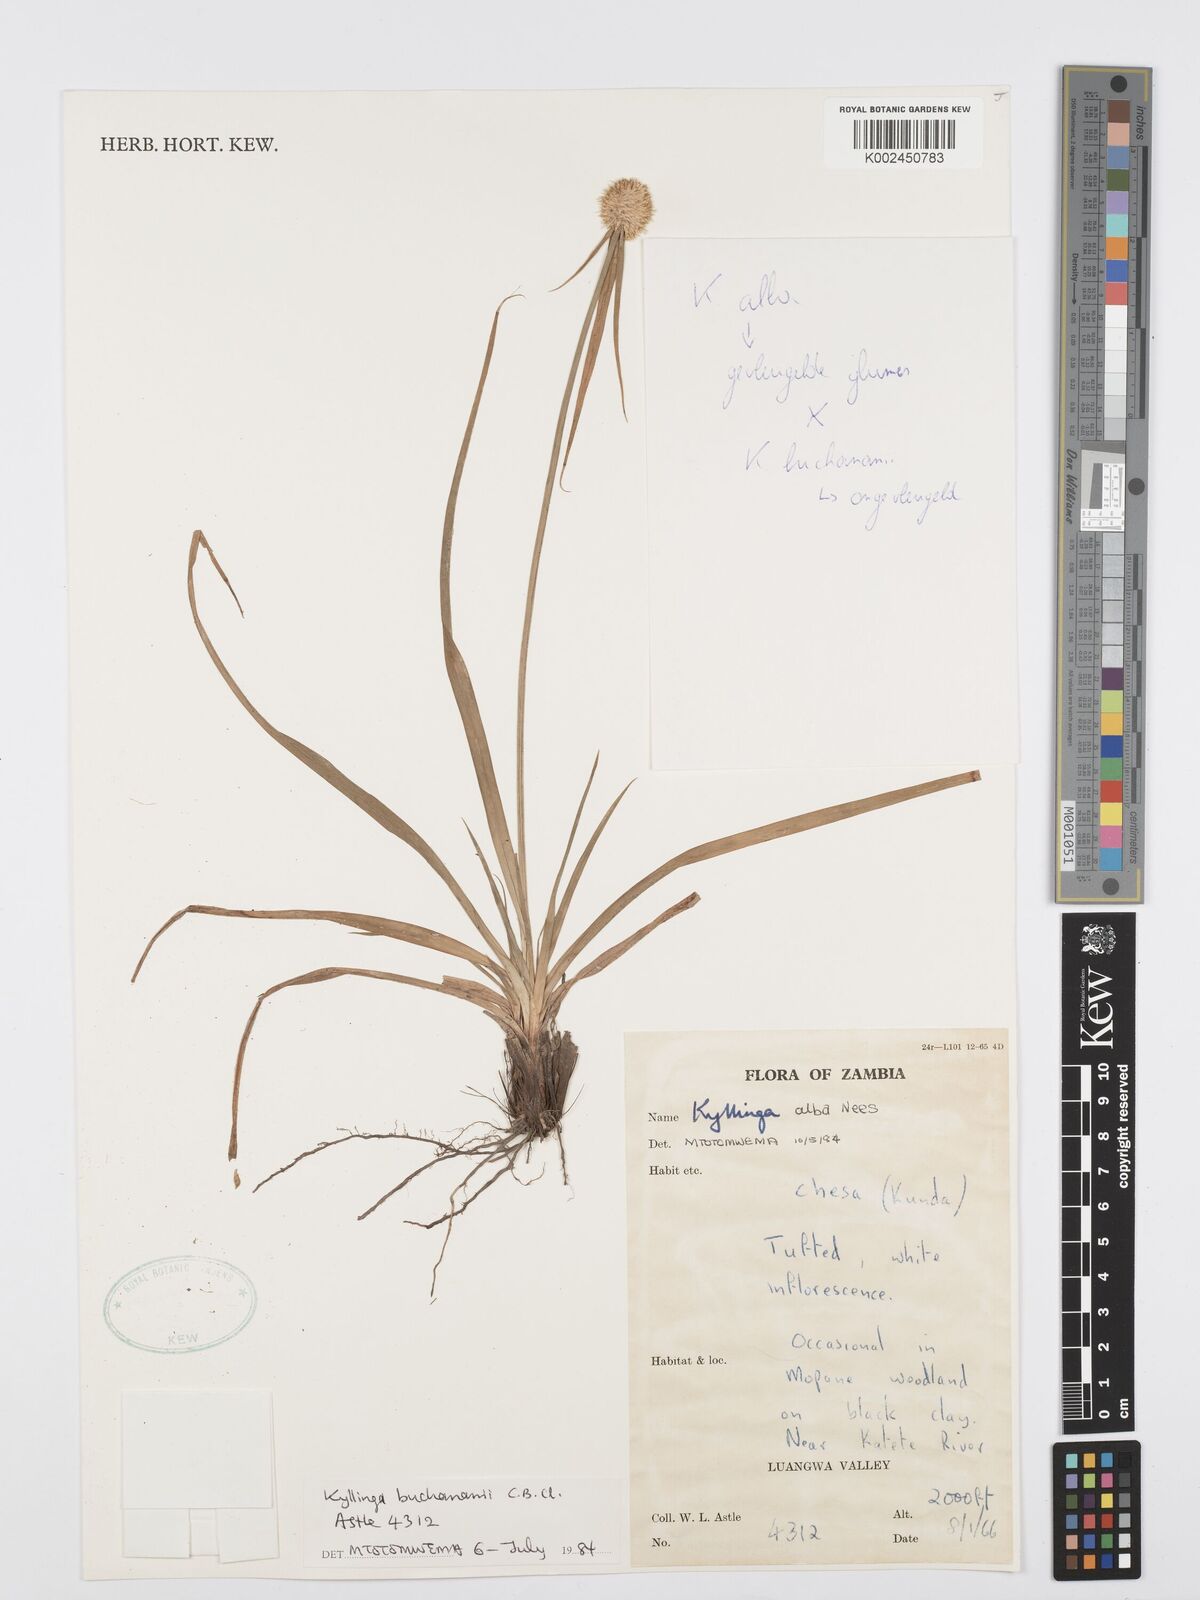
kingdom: Plantae
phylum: Tracheophyta
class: Liliopsida
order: Poales
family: Cyperaceae
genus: Cyperus
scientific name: Cyperus rukwanus
